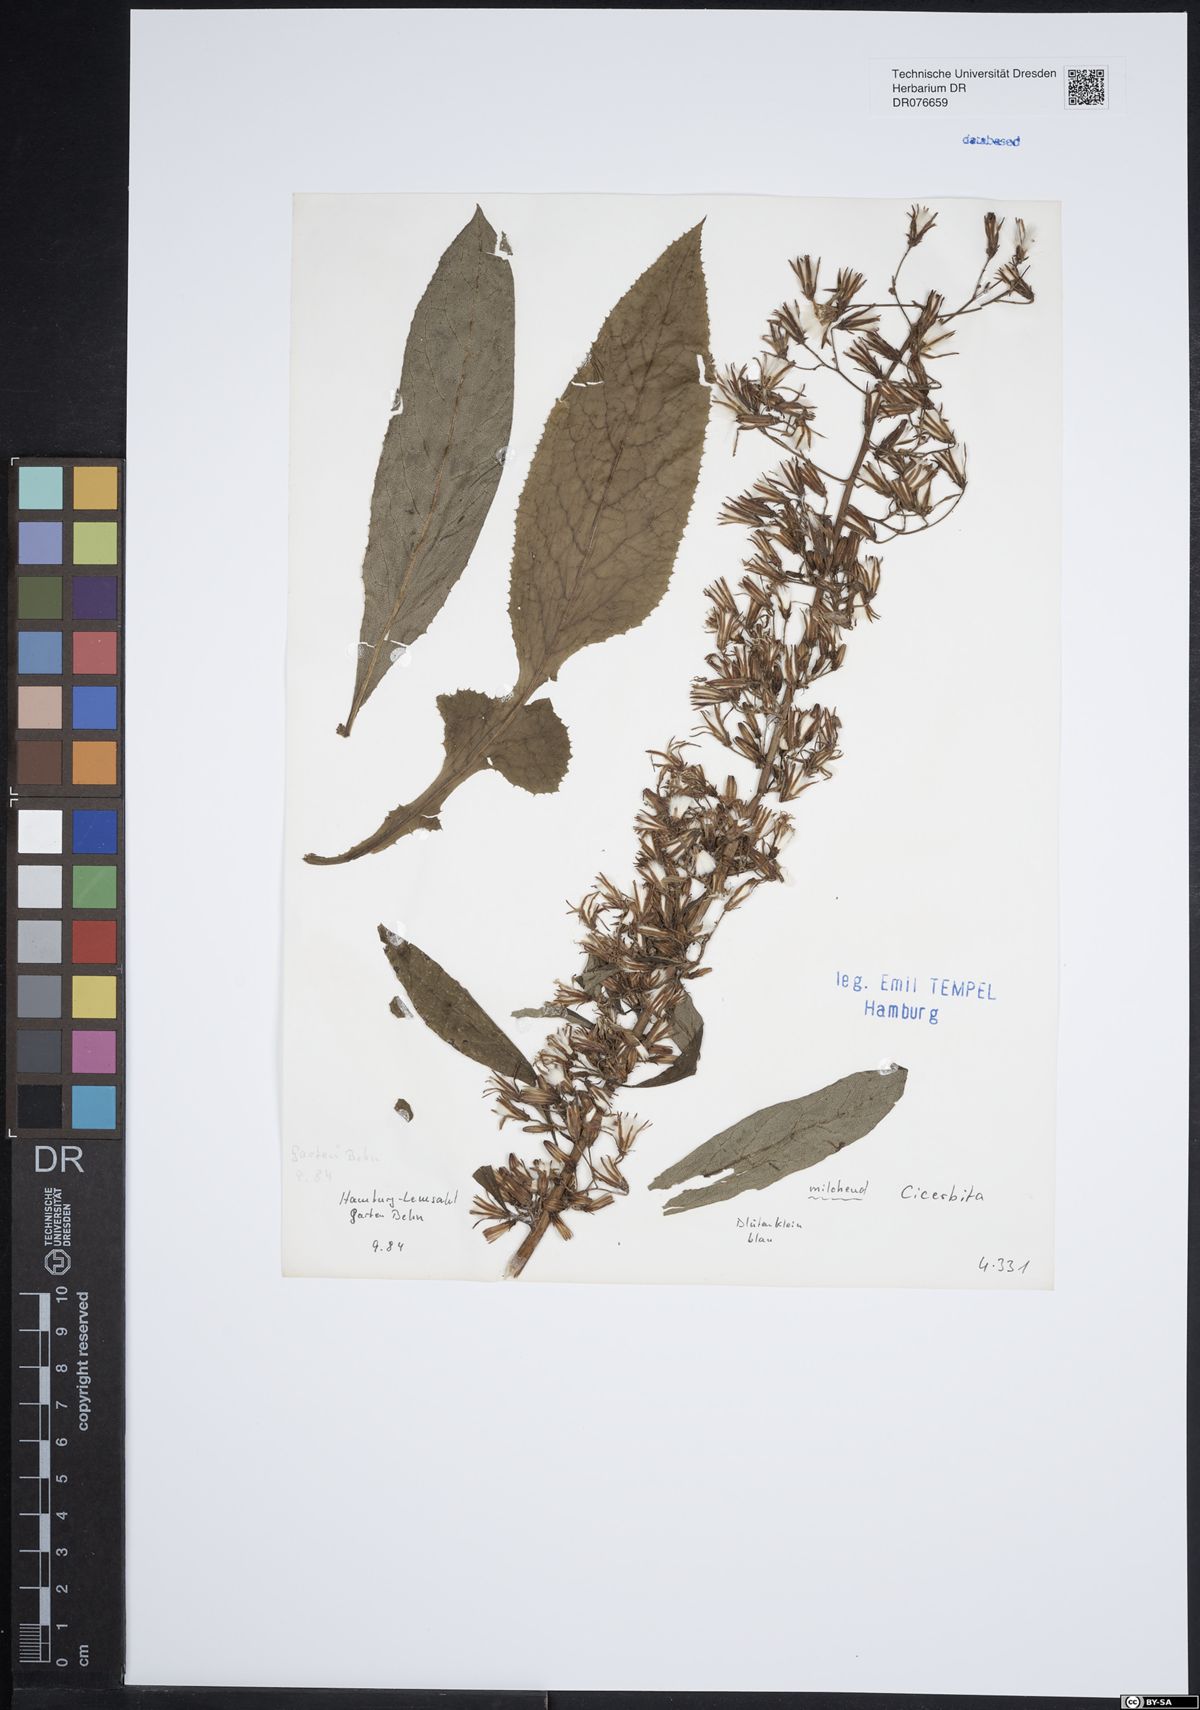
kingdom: Plantae
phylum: Tracheophyta
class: Magnoliopsida
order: Asterales
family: Asteraceae
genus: Cicerbita
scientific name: Cicerbita
